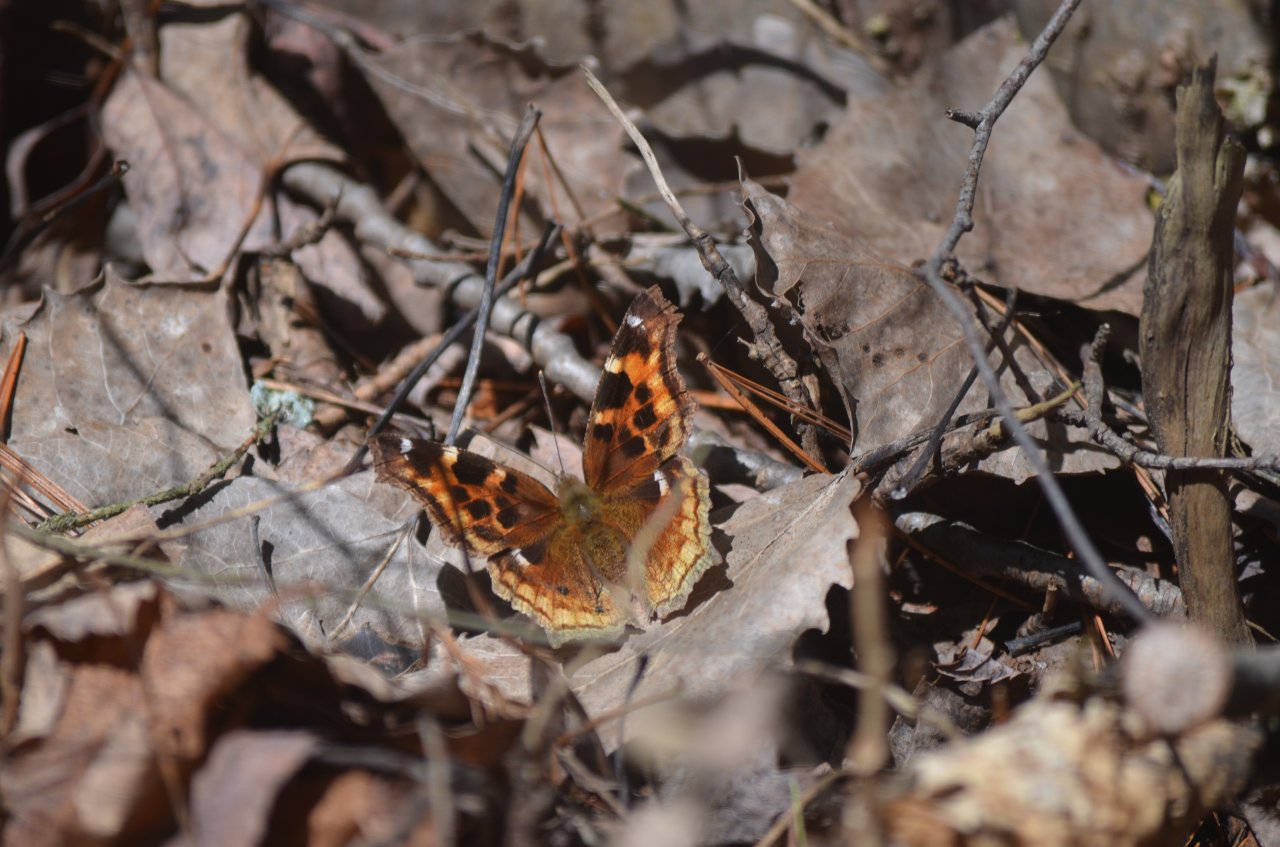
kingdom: Animalia
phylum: Arthropoda
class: Insecta
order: Lepidoptera
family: Nymphalidae
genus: Polygonia
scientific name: Polygonia vaualbum
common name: Compton Tortoiseshell
